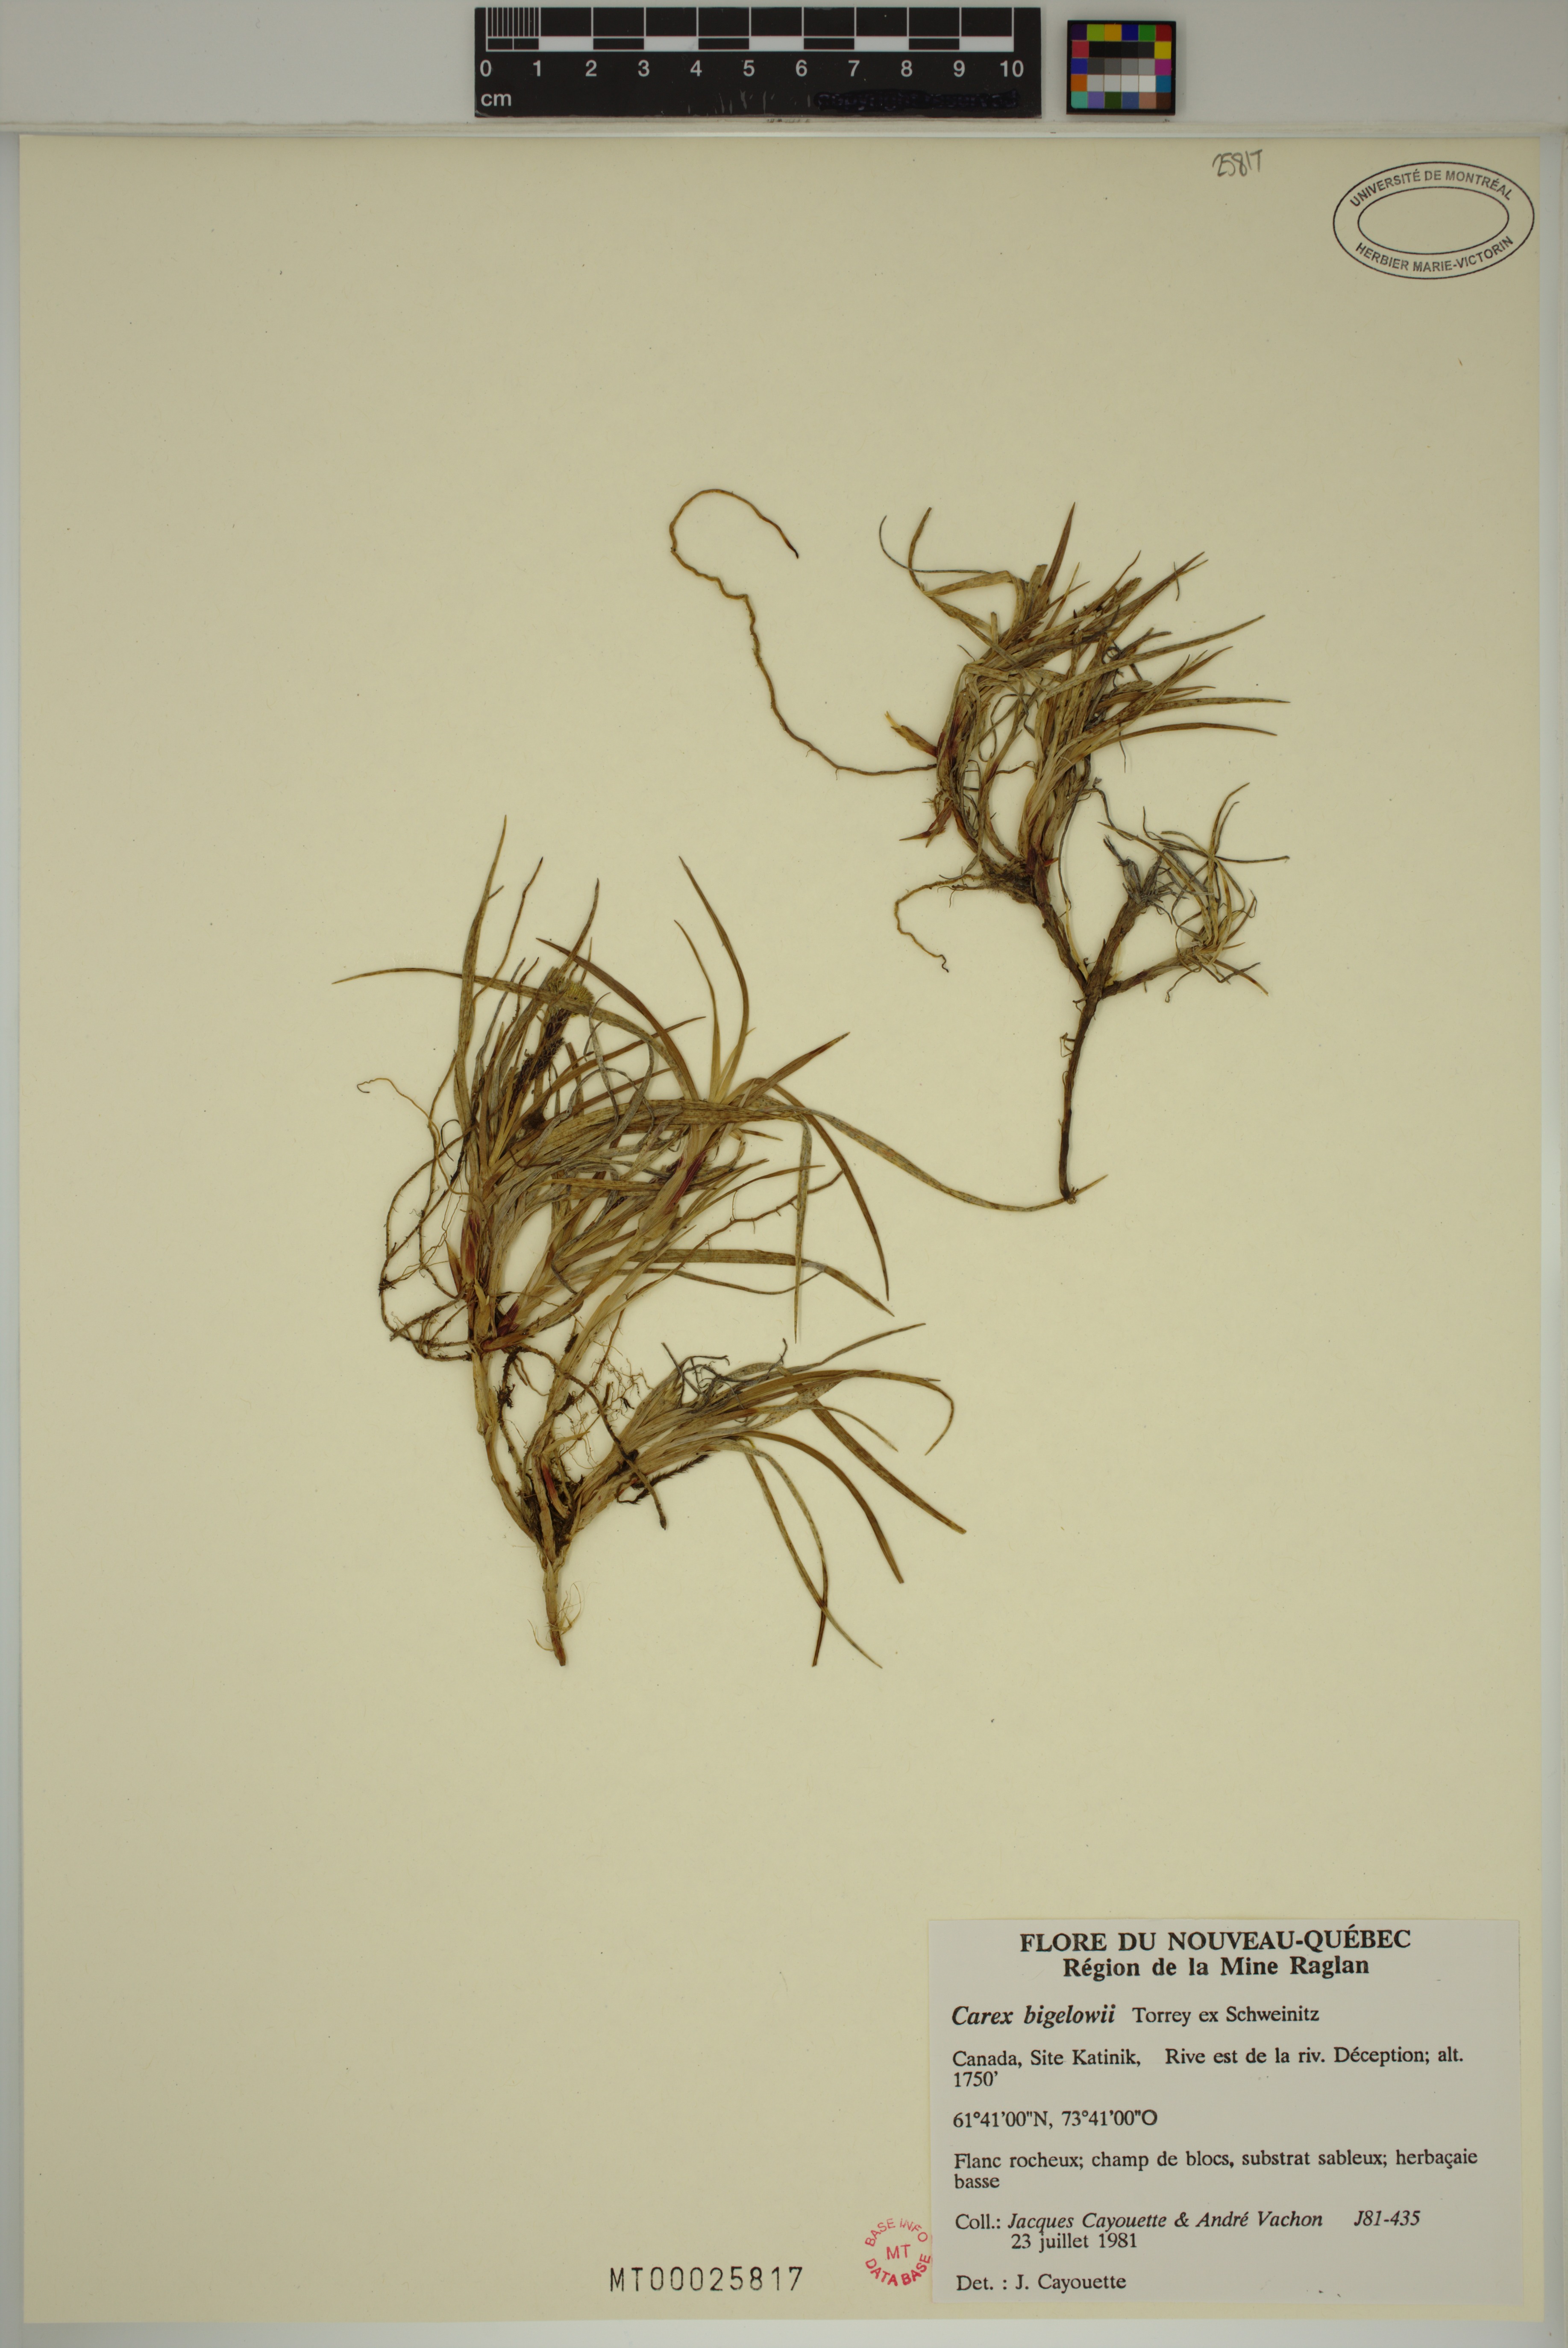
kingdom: Plantae
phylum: Tracheophyta
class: Liliopsida
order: Poales
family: Cyperaceae
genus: Carex
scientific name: Carex bigelowii
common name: Stiff sedge
